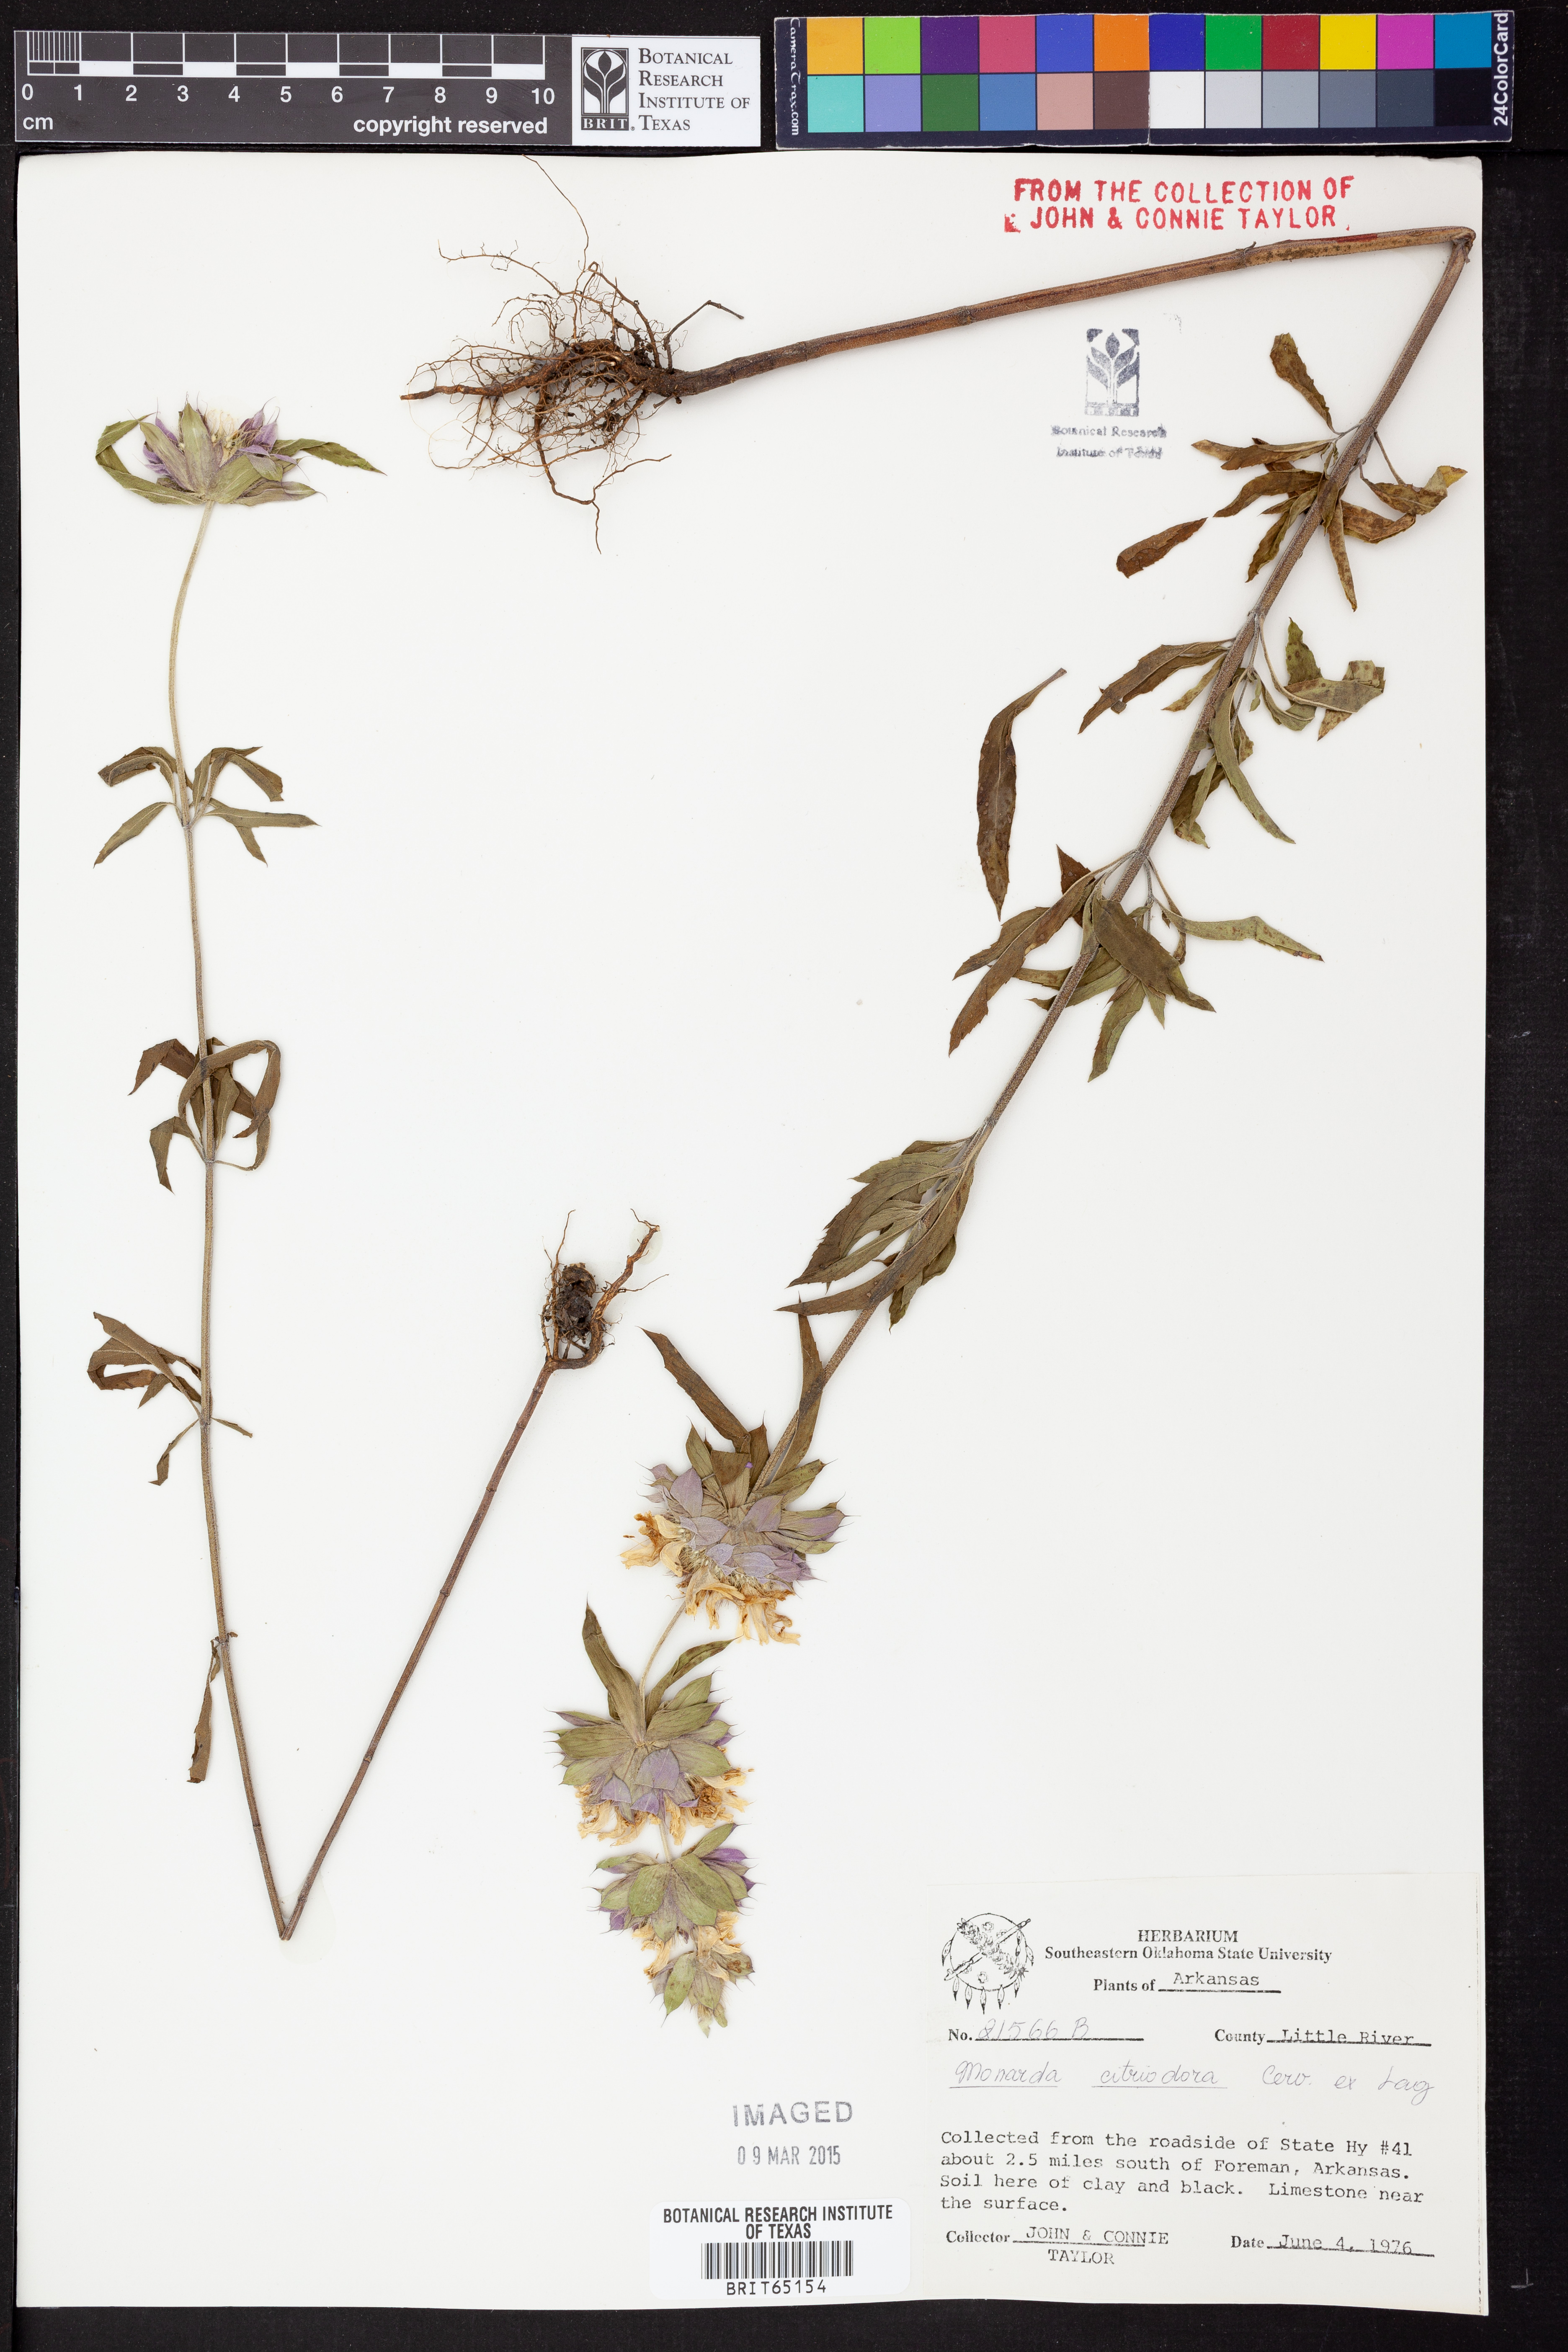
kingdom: Plantae
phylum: Tracheophyta
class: Magnoliopsida
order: Lamiales
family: Lamiaceae
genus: Monarda
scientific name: Monarda citriodora
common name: Lemon beebalm
